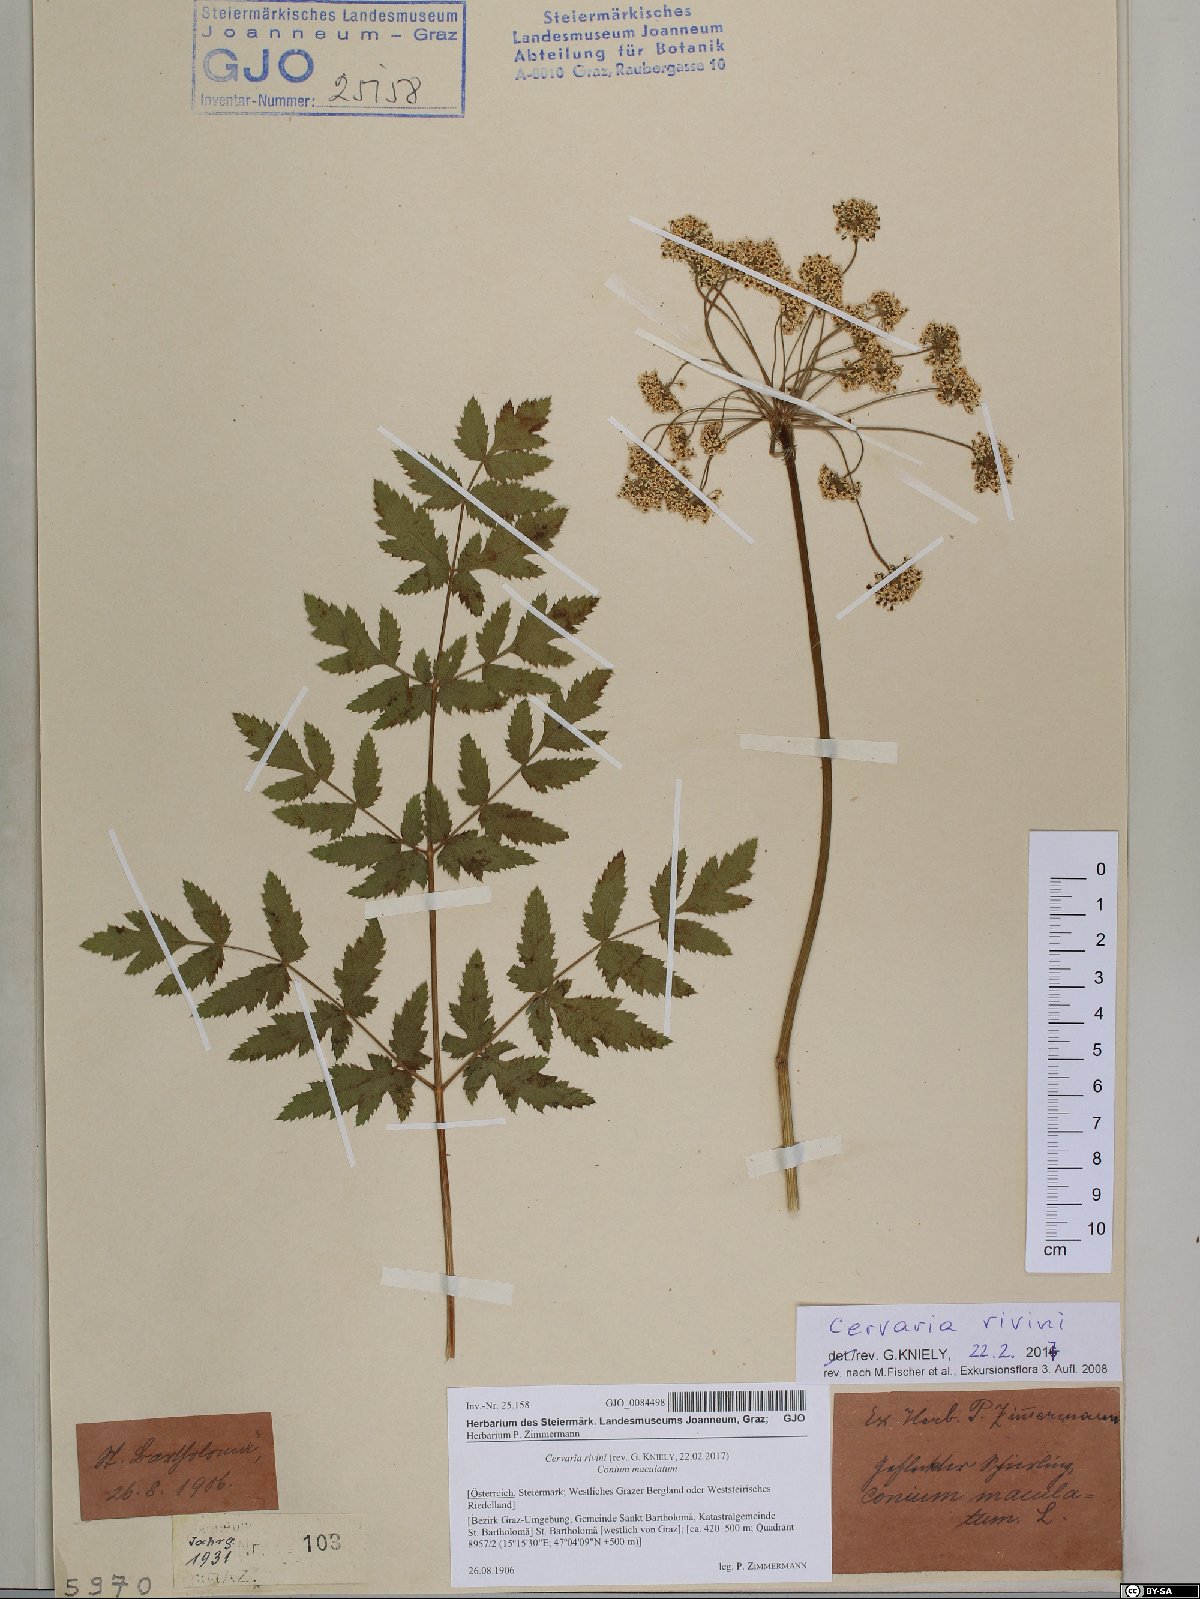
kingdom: Plantae
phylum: Tracheophyta
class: Magnoliopsida
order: Apiales
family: Apiaceae
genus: Cervaria
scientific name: Cervaria rivini
